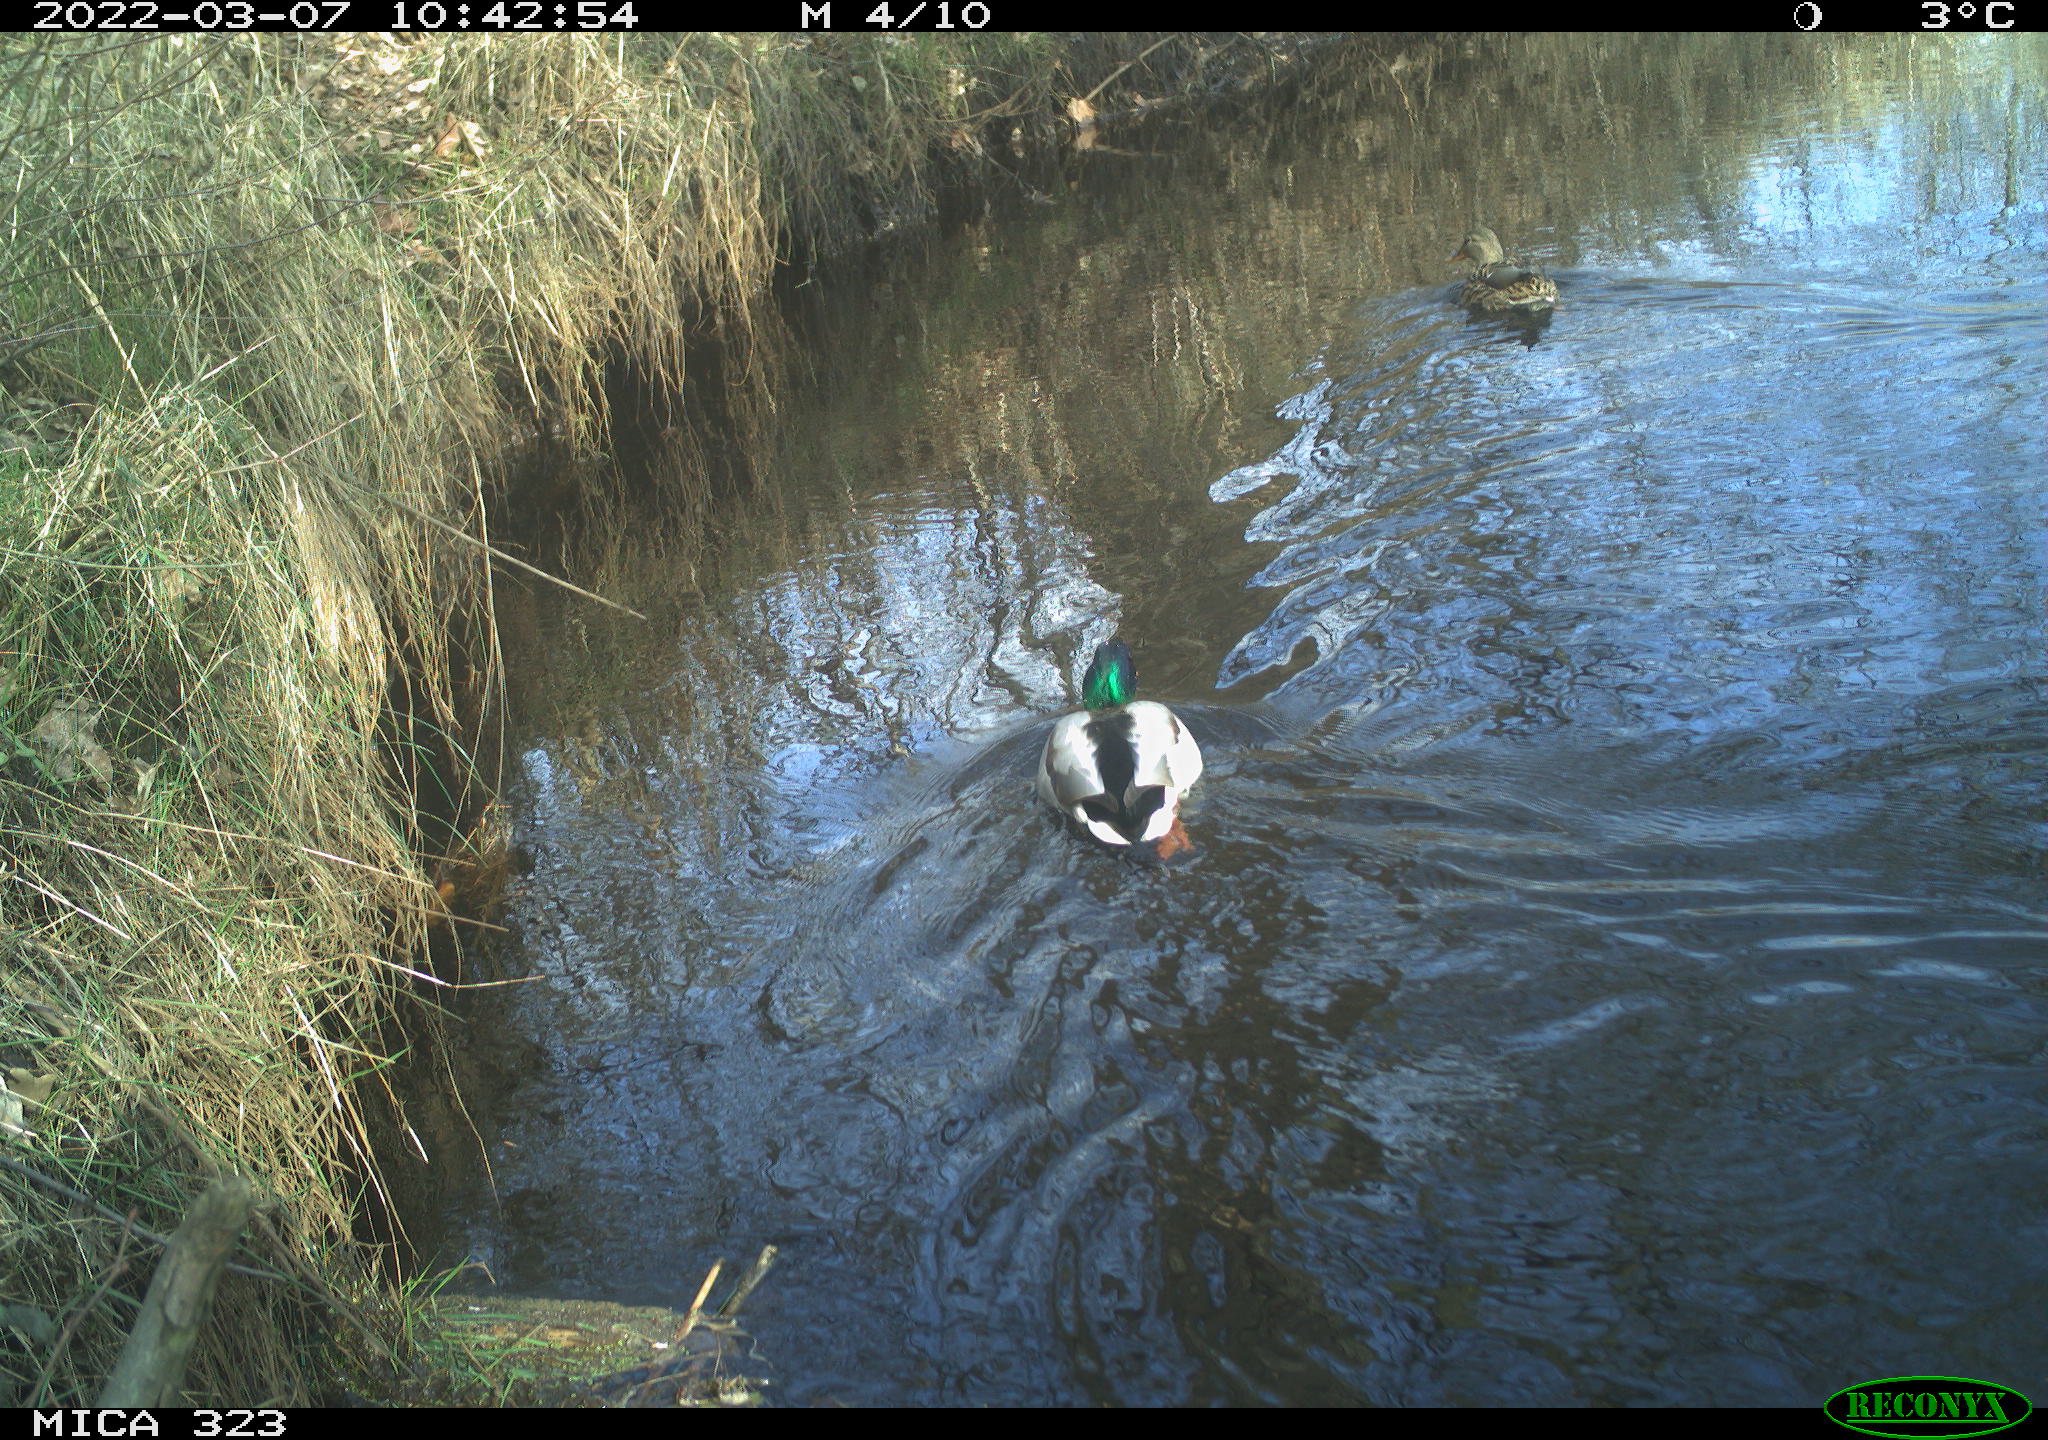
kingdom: Animalia
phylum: Chordata
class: Aves
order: Anseriformes
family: Anatidae
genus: Anas
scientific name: Anas platyrhynchos
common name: Mallard
